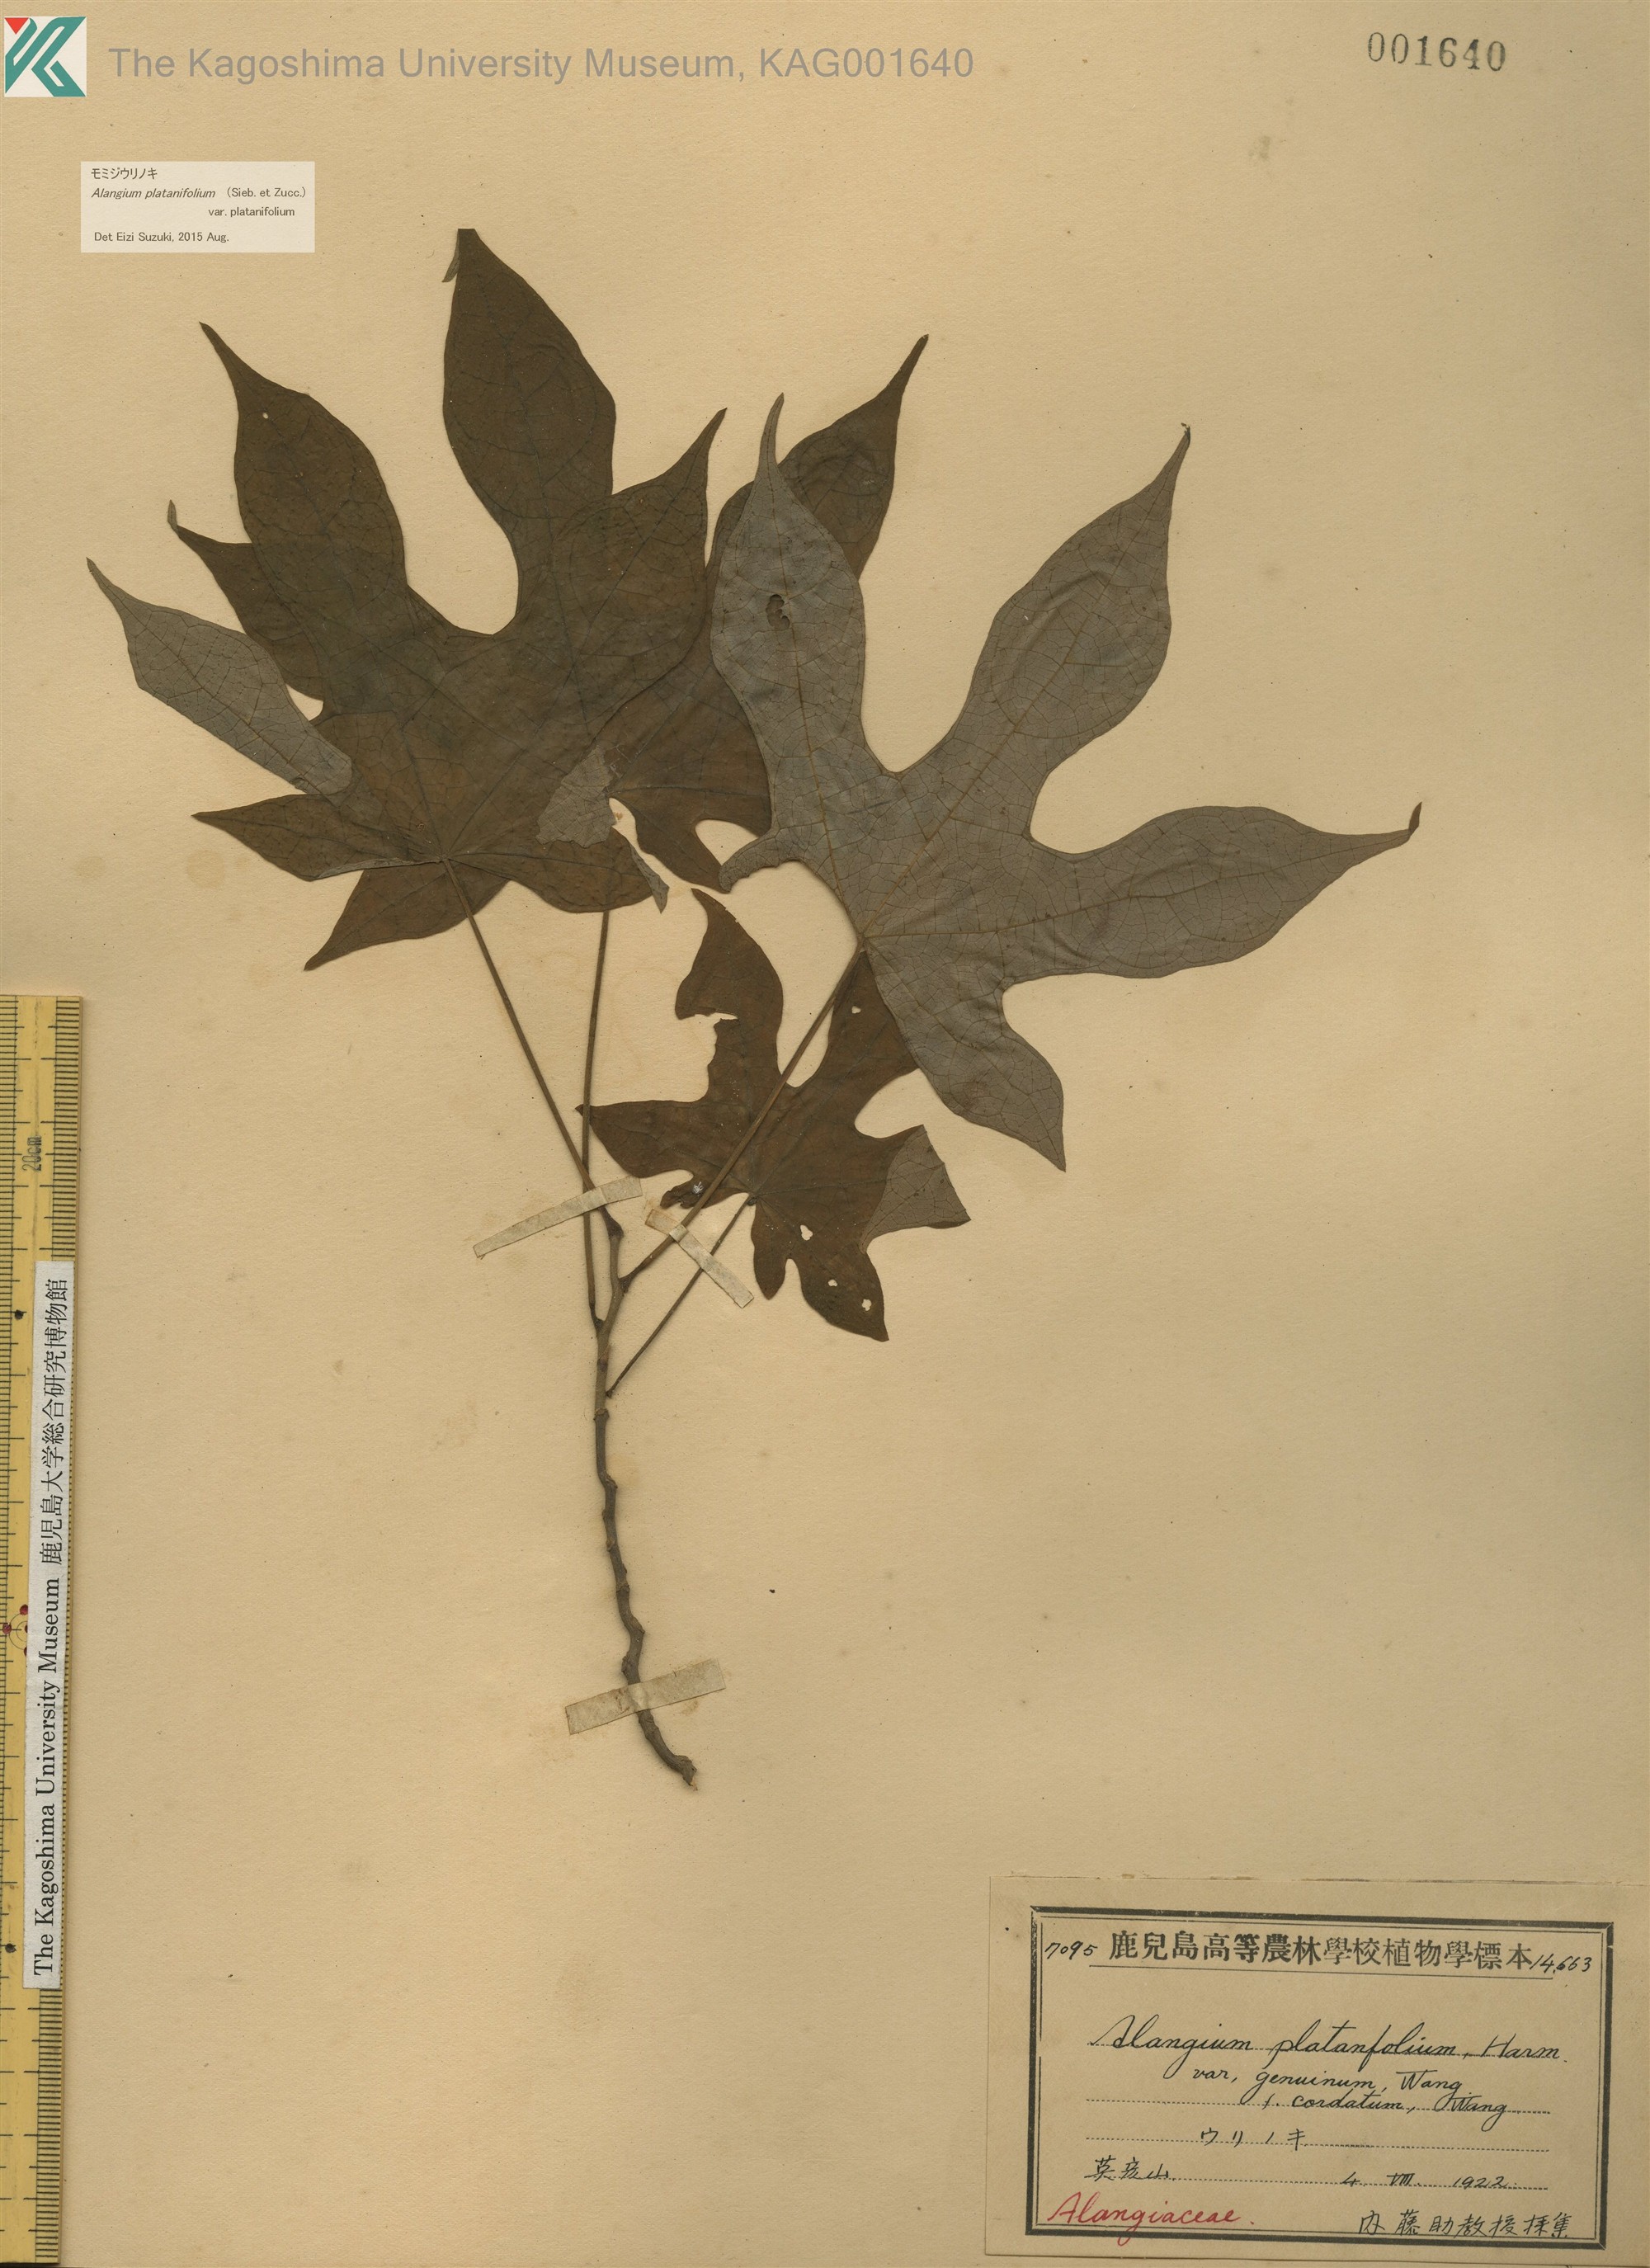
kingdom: Plantae
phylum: Tracheophyta
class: Magnoliopsida
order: Cornales
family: Cornaceae
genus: Alangium
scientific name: Alangium platanifolium
